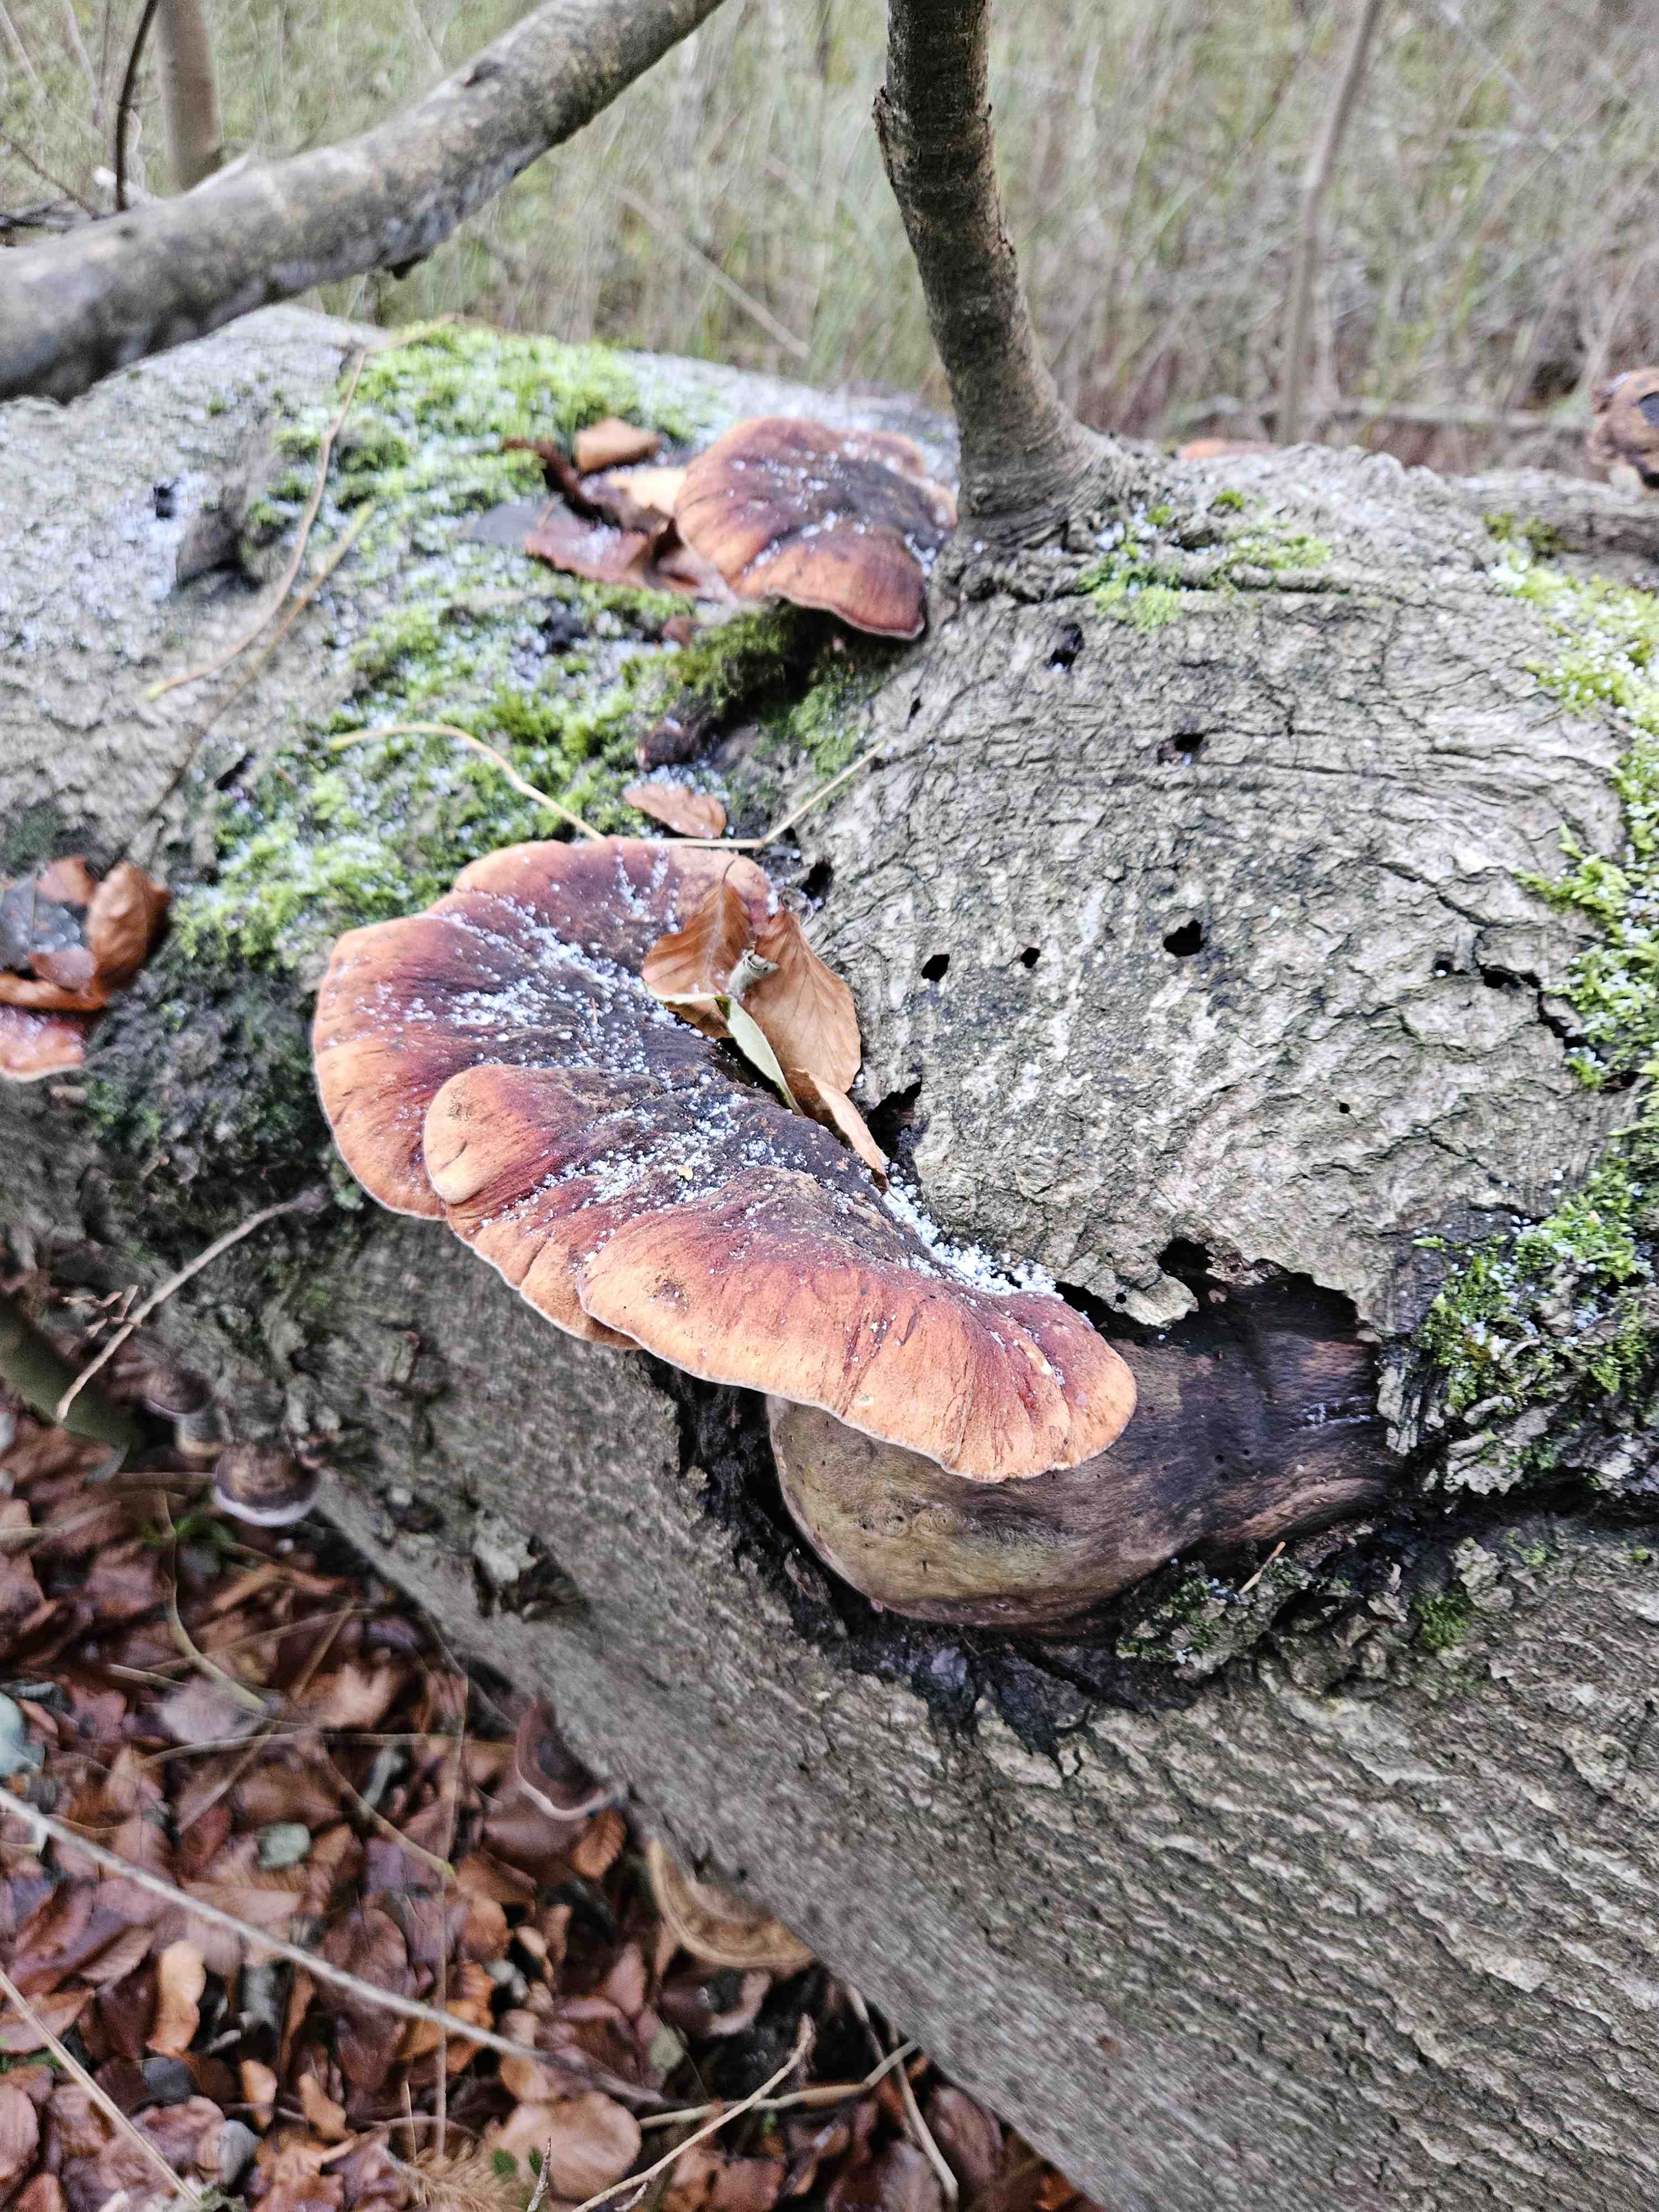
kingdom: Fungi
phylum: Basidiomycota
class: Agaricomycetes
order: Polyporales
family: Ischnodermataceae
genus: Ischnoderma
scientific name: Ischnoderma resinosum
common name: løv-tjæreporesvamp
